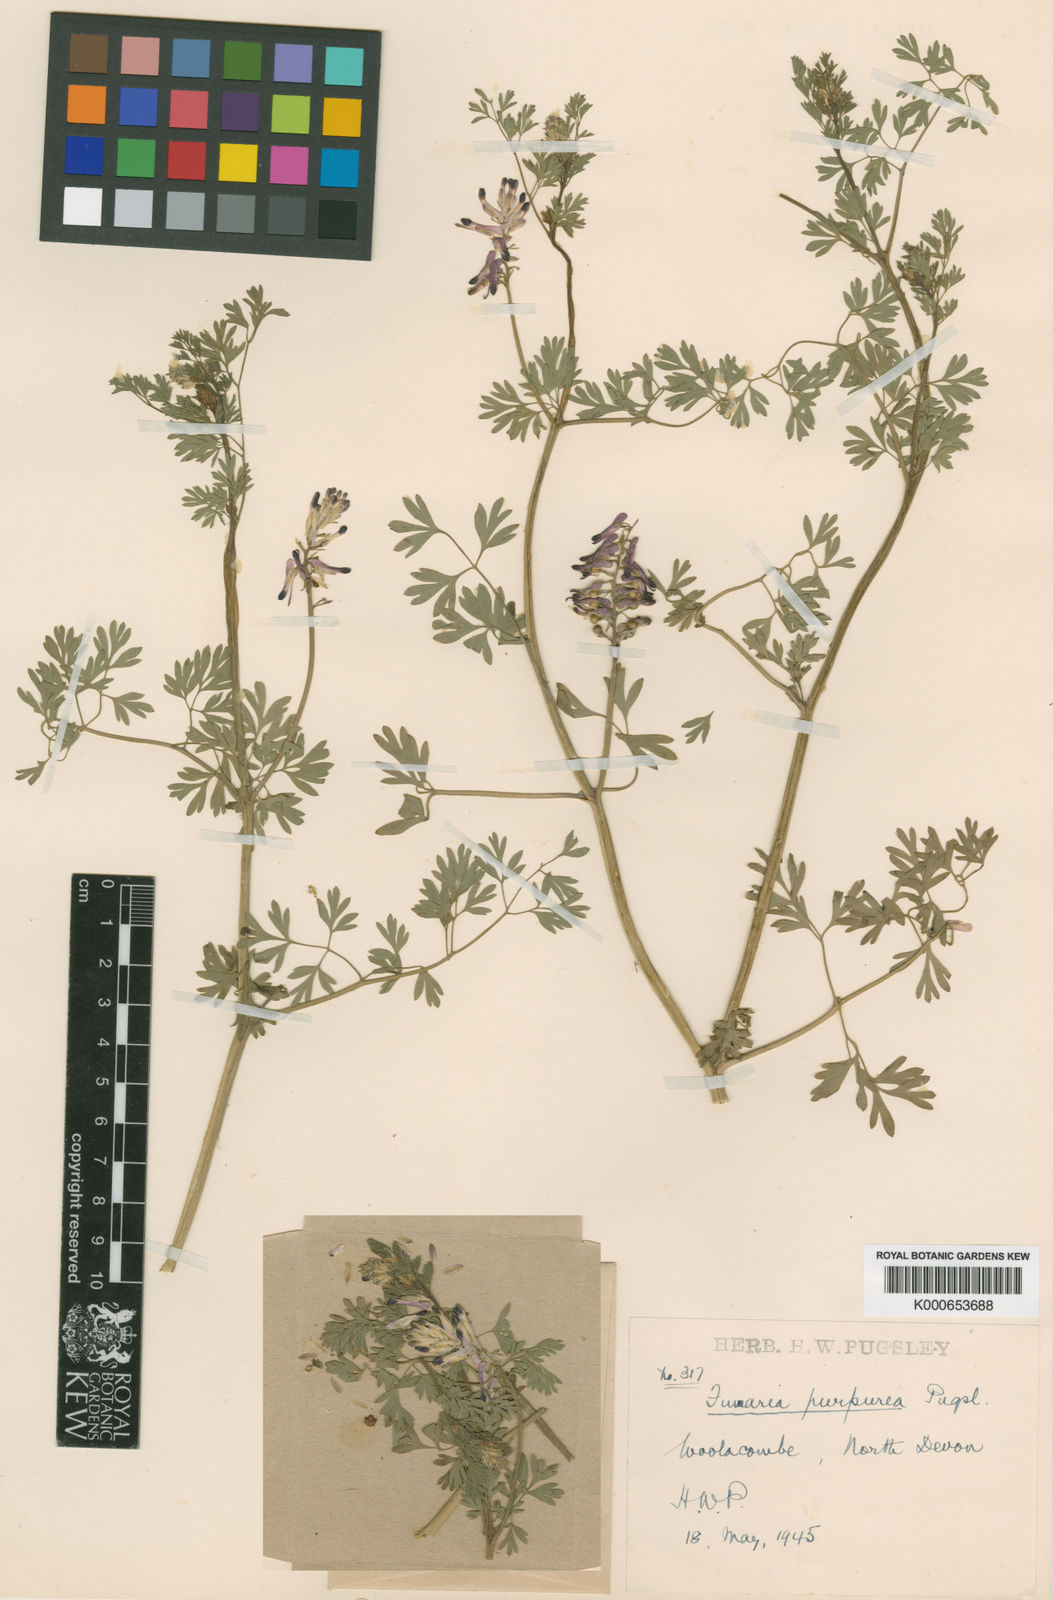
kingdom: Plantae
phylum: Tracheophyta
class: Magnoliopsida
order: Ranunculales
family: Papaveraceae
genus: Fumaria
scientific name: Fumaria purpurea
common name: Purple ramping-fumitory
